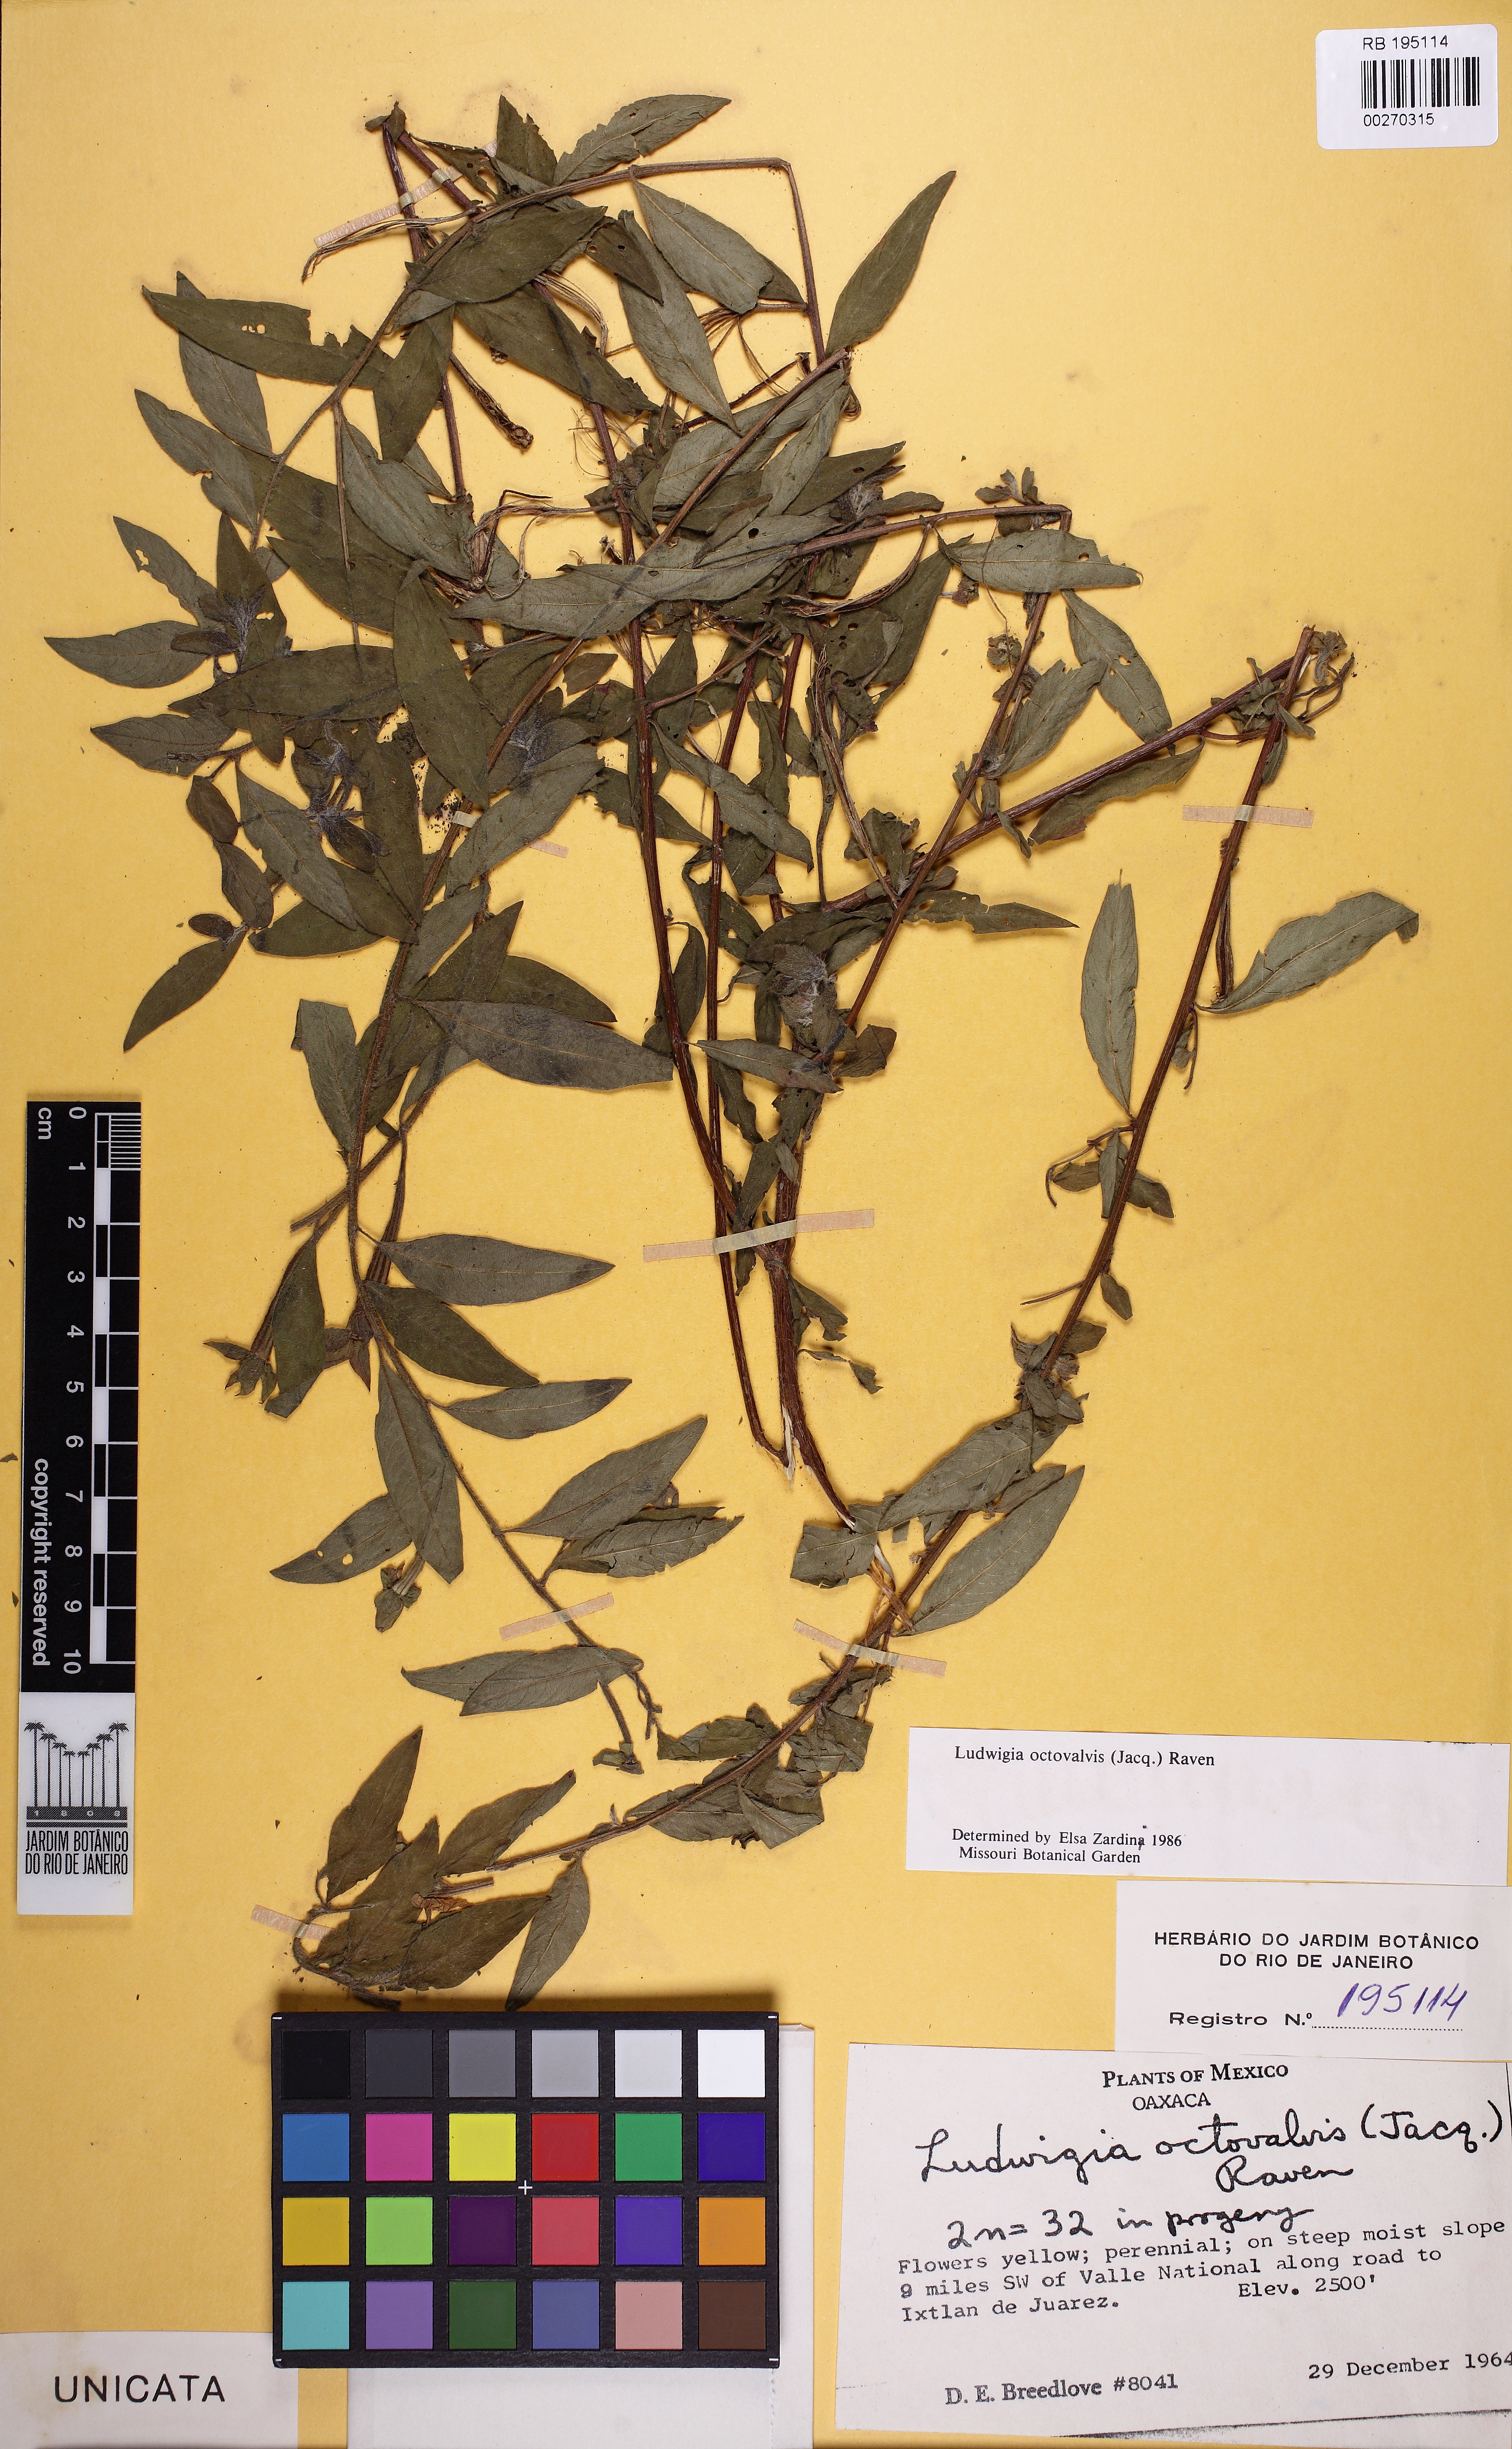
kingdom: Plantae
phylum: Tracheophyta
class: Magnoliopsida
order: Myrtales
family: Onagraceae
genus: Ludwigia
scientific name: Ludwigia octovalvis
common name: Water-primrose
